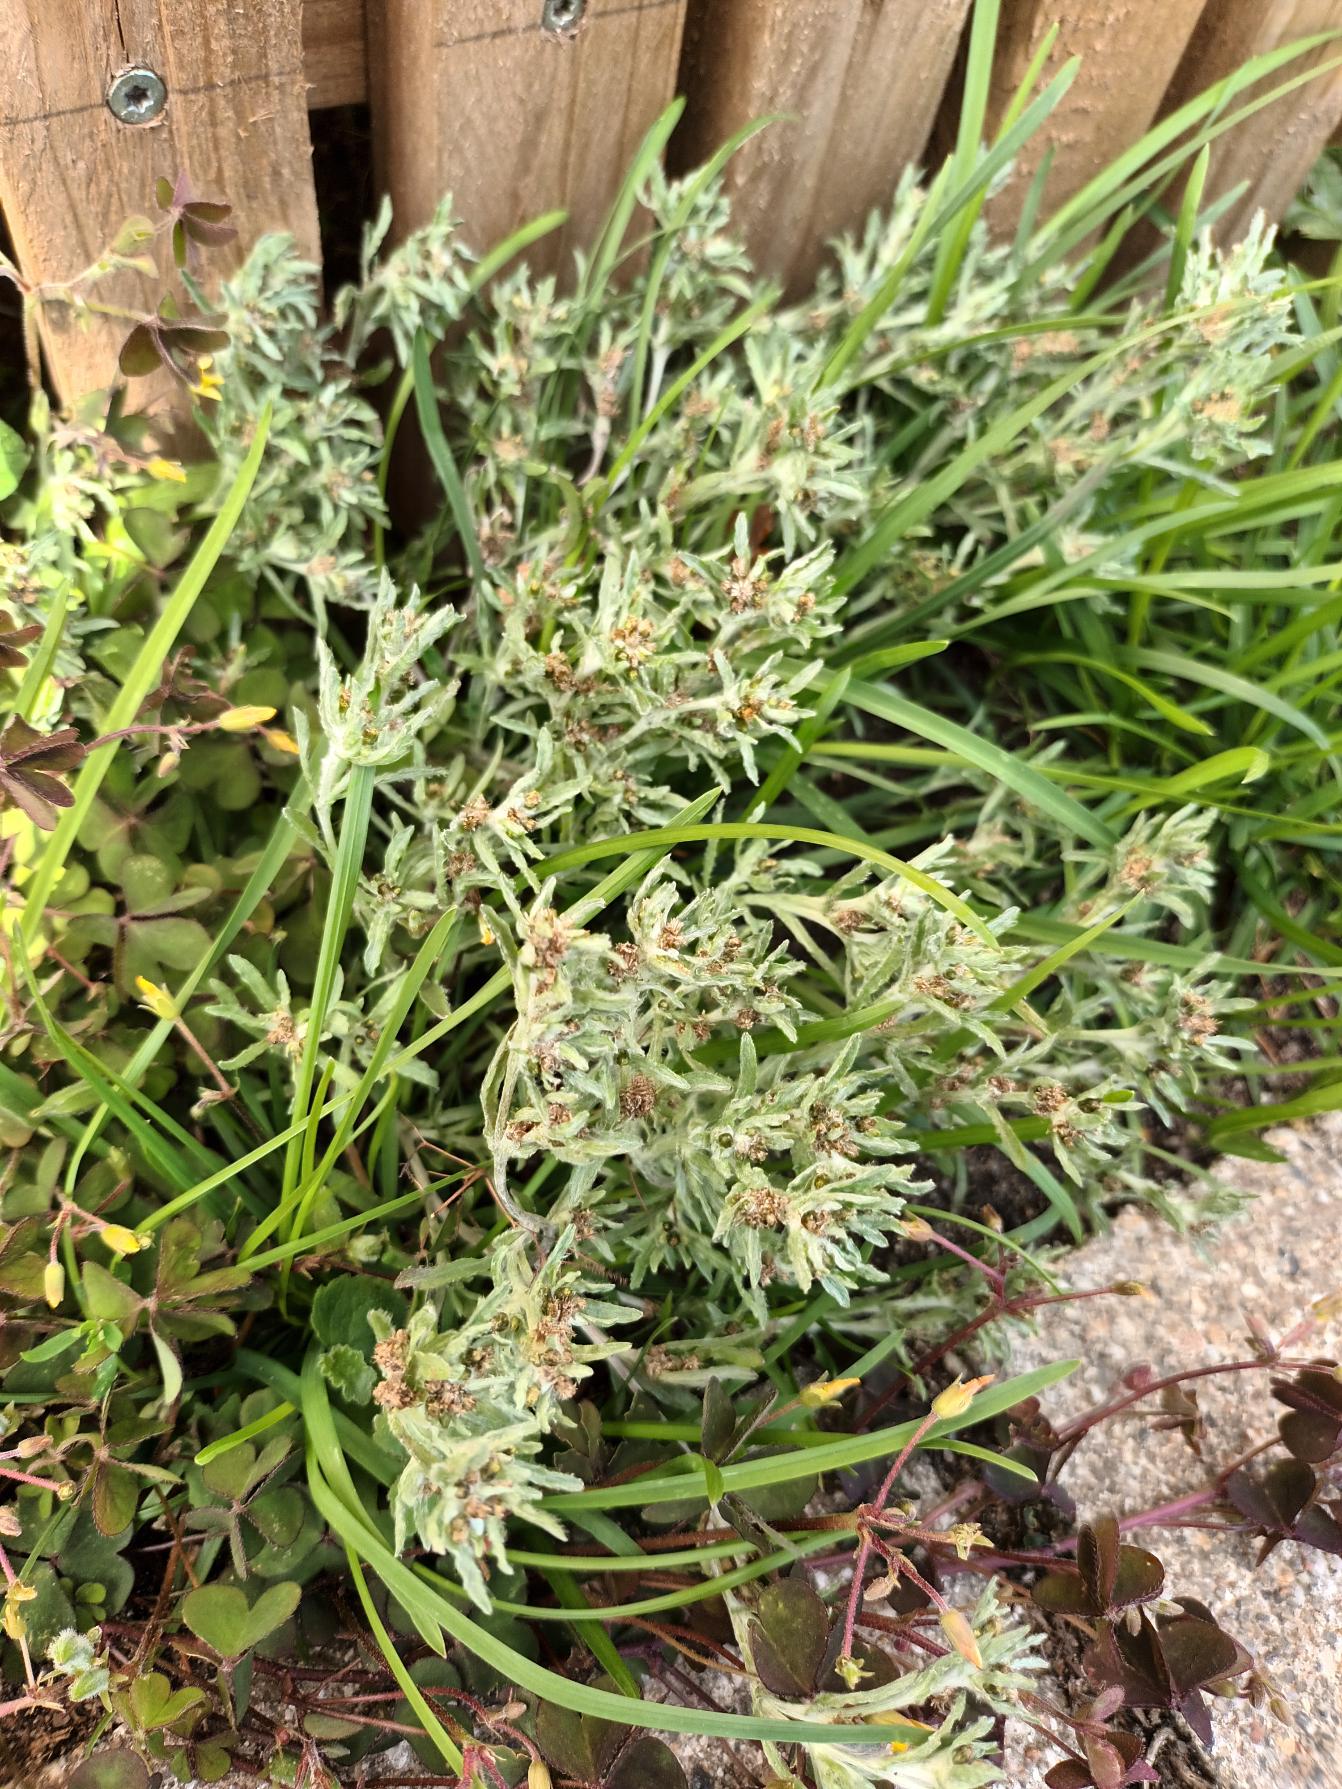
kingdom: Plantae
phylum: Tracheophyta
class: Magnoliopsida
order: Asterales
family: Asteraceae
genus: Gnaphalium
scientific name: Gnaphalium uliginosum
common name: Sump-evighedsblomst
